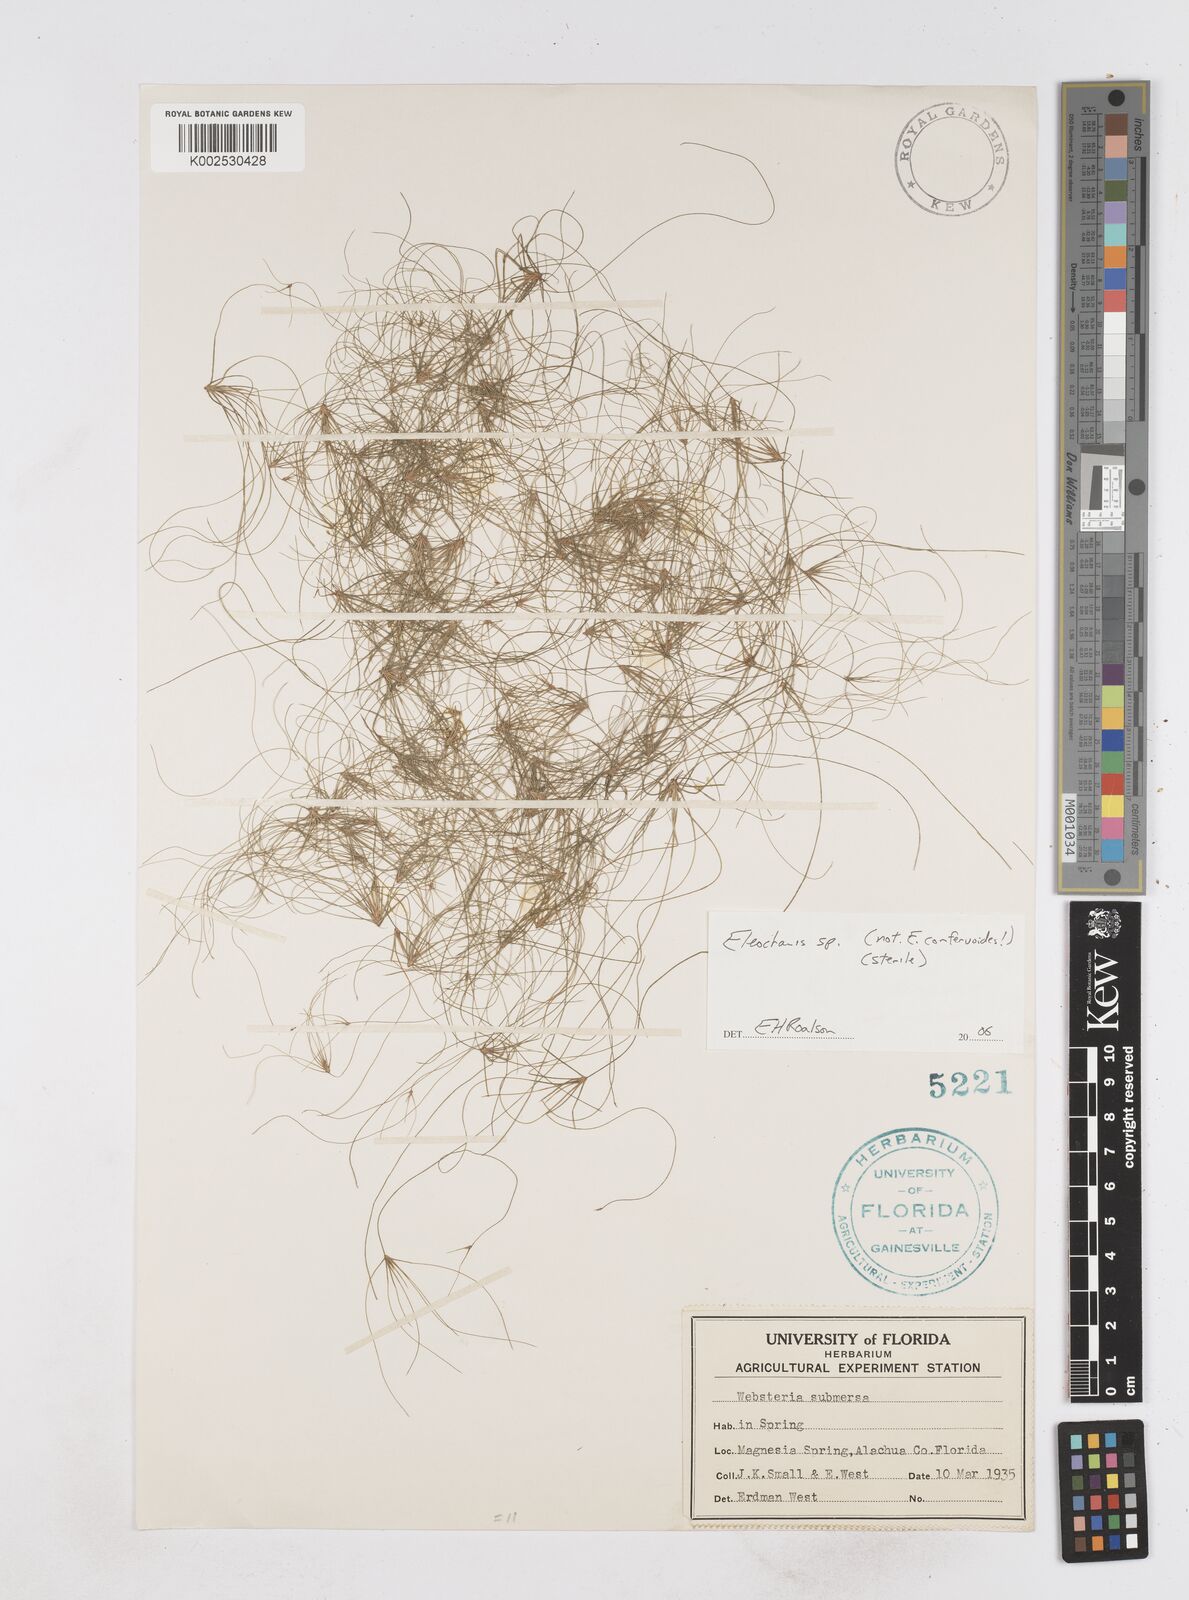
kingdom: Plantae
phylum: Tracheophyta
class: Liliopsida
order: Poales
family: Cyperaceae
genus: Eleocharis
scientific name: Eleocharis
